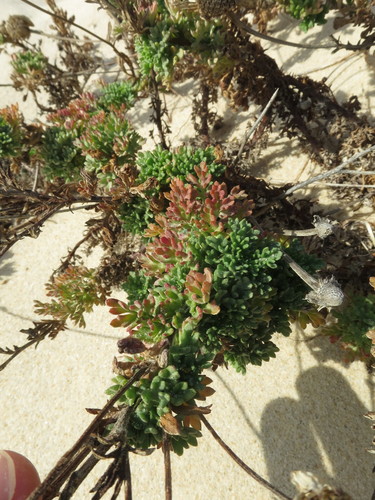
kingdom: Plantae
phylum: Tracheophyta
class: Magnoliopsida
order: Asterales
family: Asteraceae
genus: Anthemis
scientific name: Anthemis maritima
